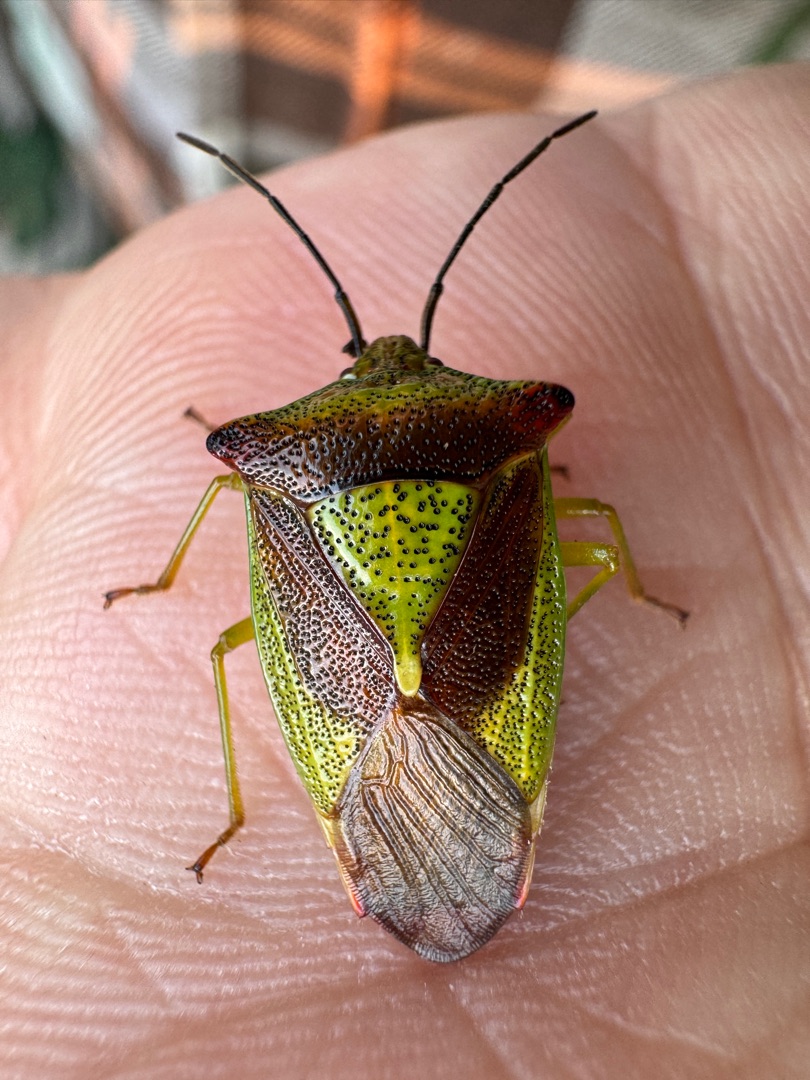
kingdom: Animalia
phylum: Arthropoda
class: Insecta
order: Hemiptera
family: Acanthosomatidae
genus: Acanthosoma
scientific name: Acanthosoma haemorrhoidale
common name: Stor løvtæge
